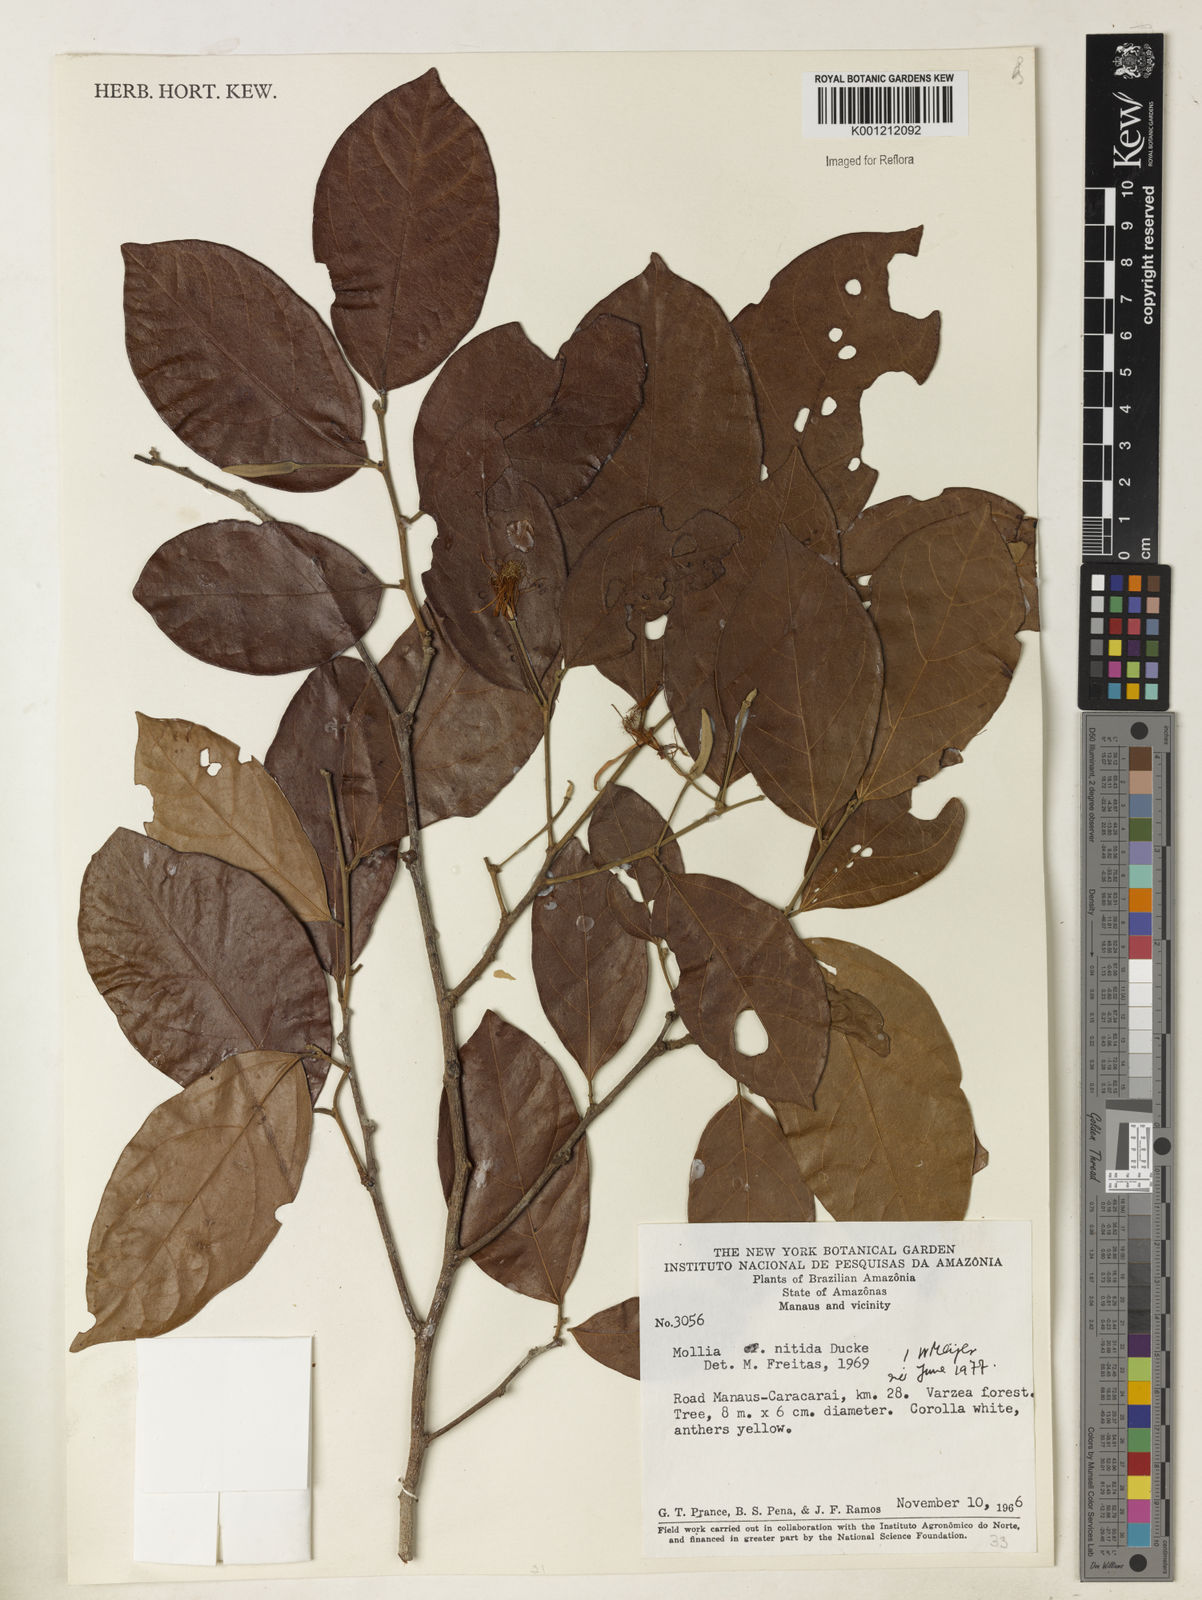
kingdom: Plantae
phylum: Tracheophyta
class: Magnoliopsida
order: Malvales
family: Malvaceae
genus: Mollia
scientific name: Mollia nitida
